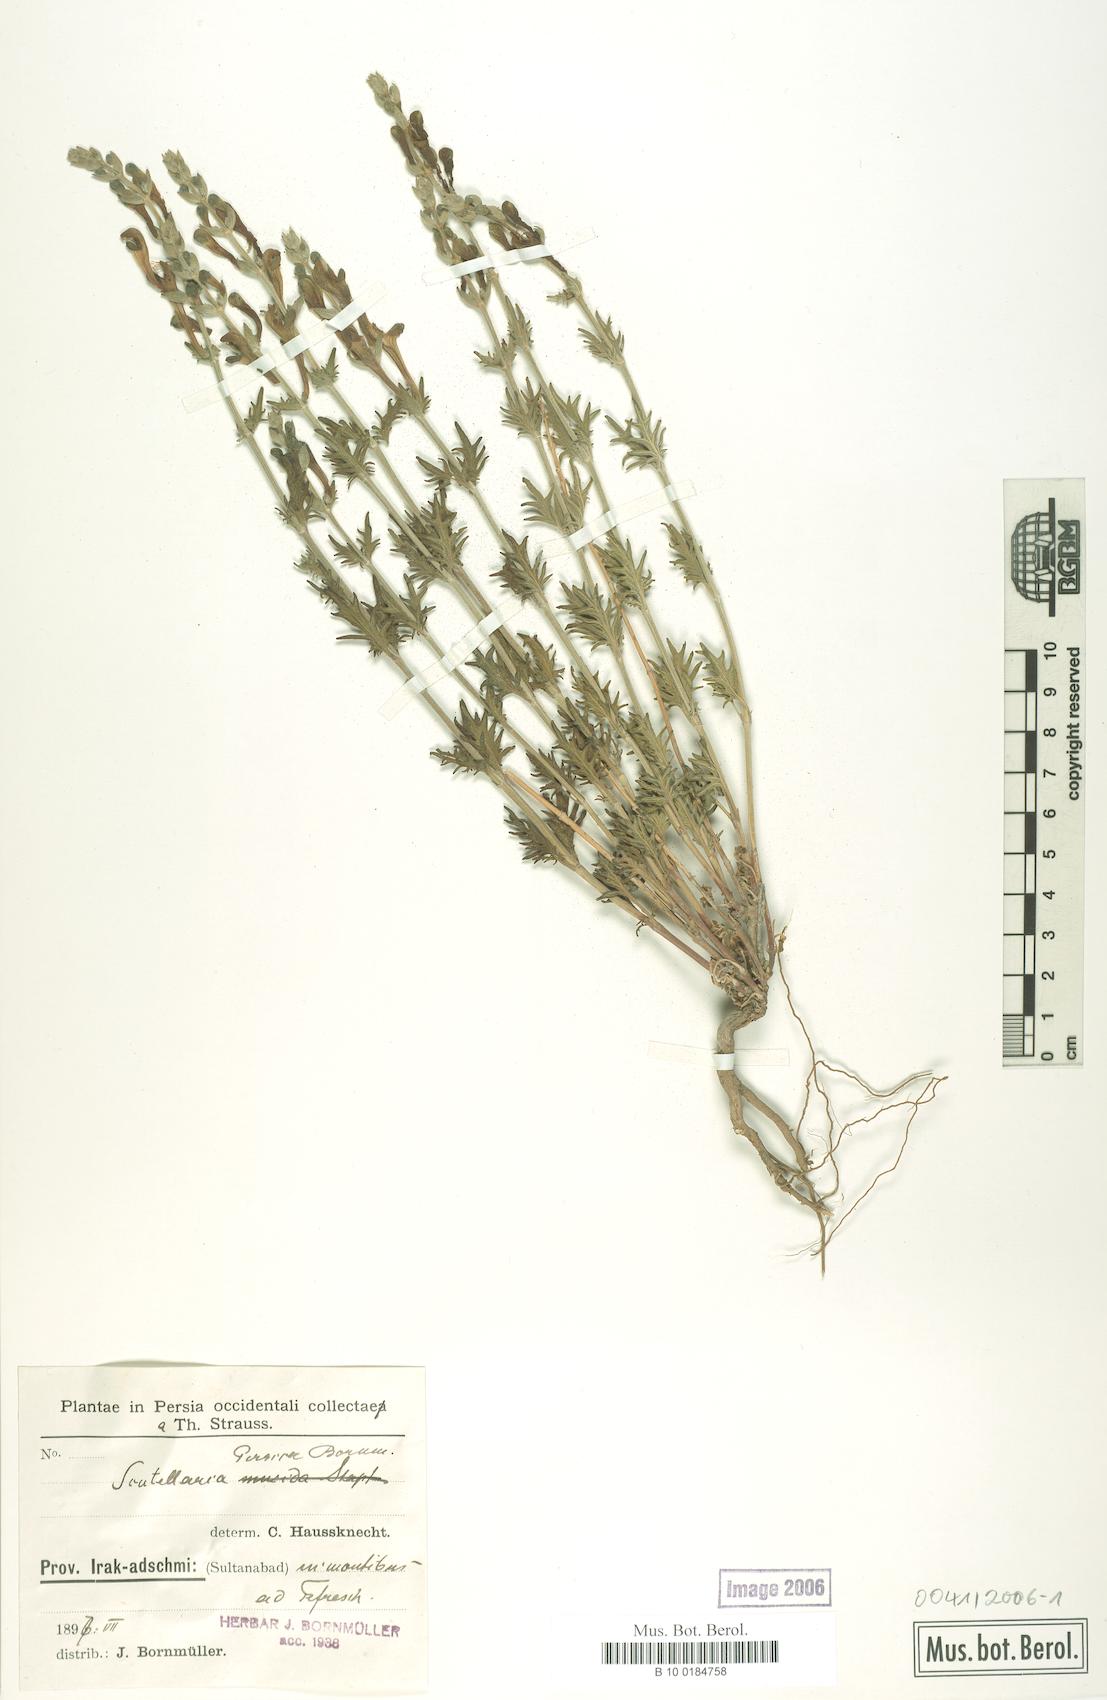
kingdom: Plantae
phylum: Tracheophyta
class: Magnoliopsida
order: Lamiales
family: Lamiaceae
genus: Scutellaria
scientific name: Scutellaria persica
